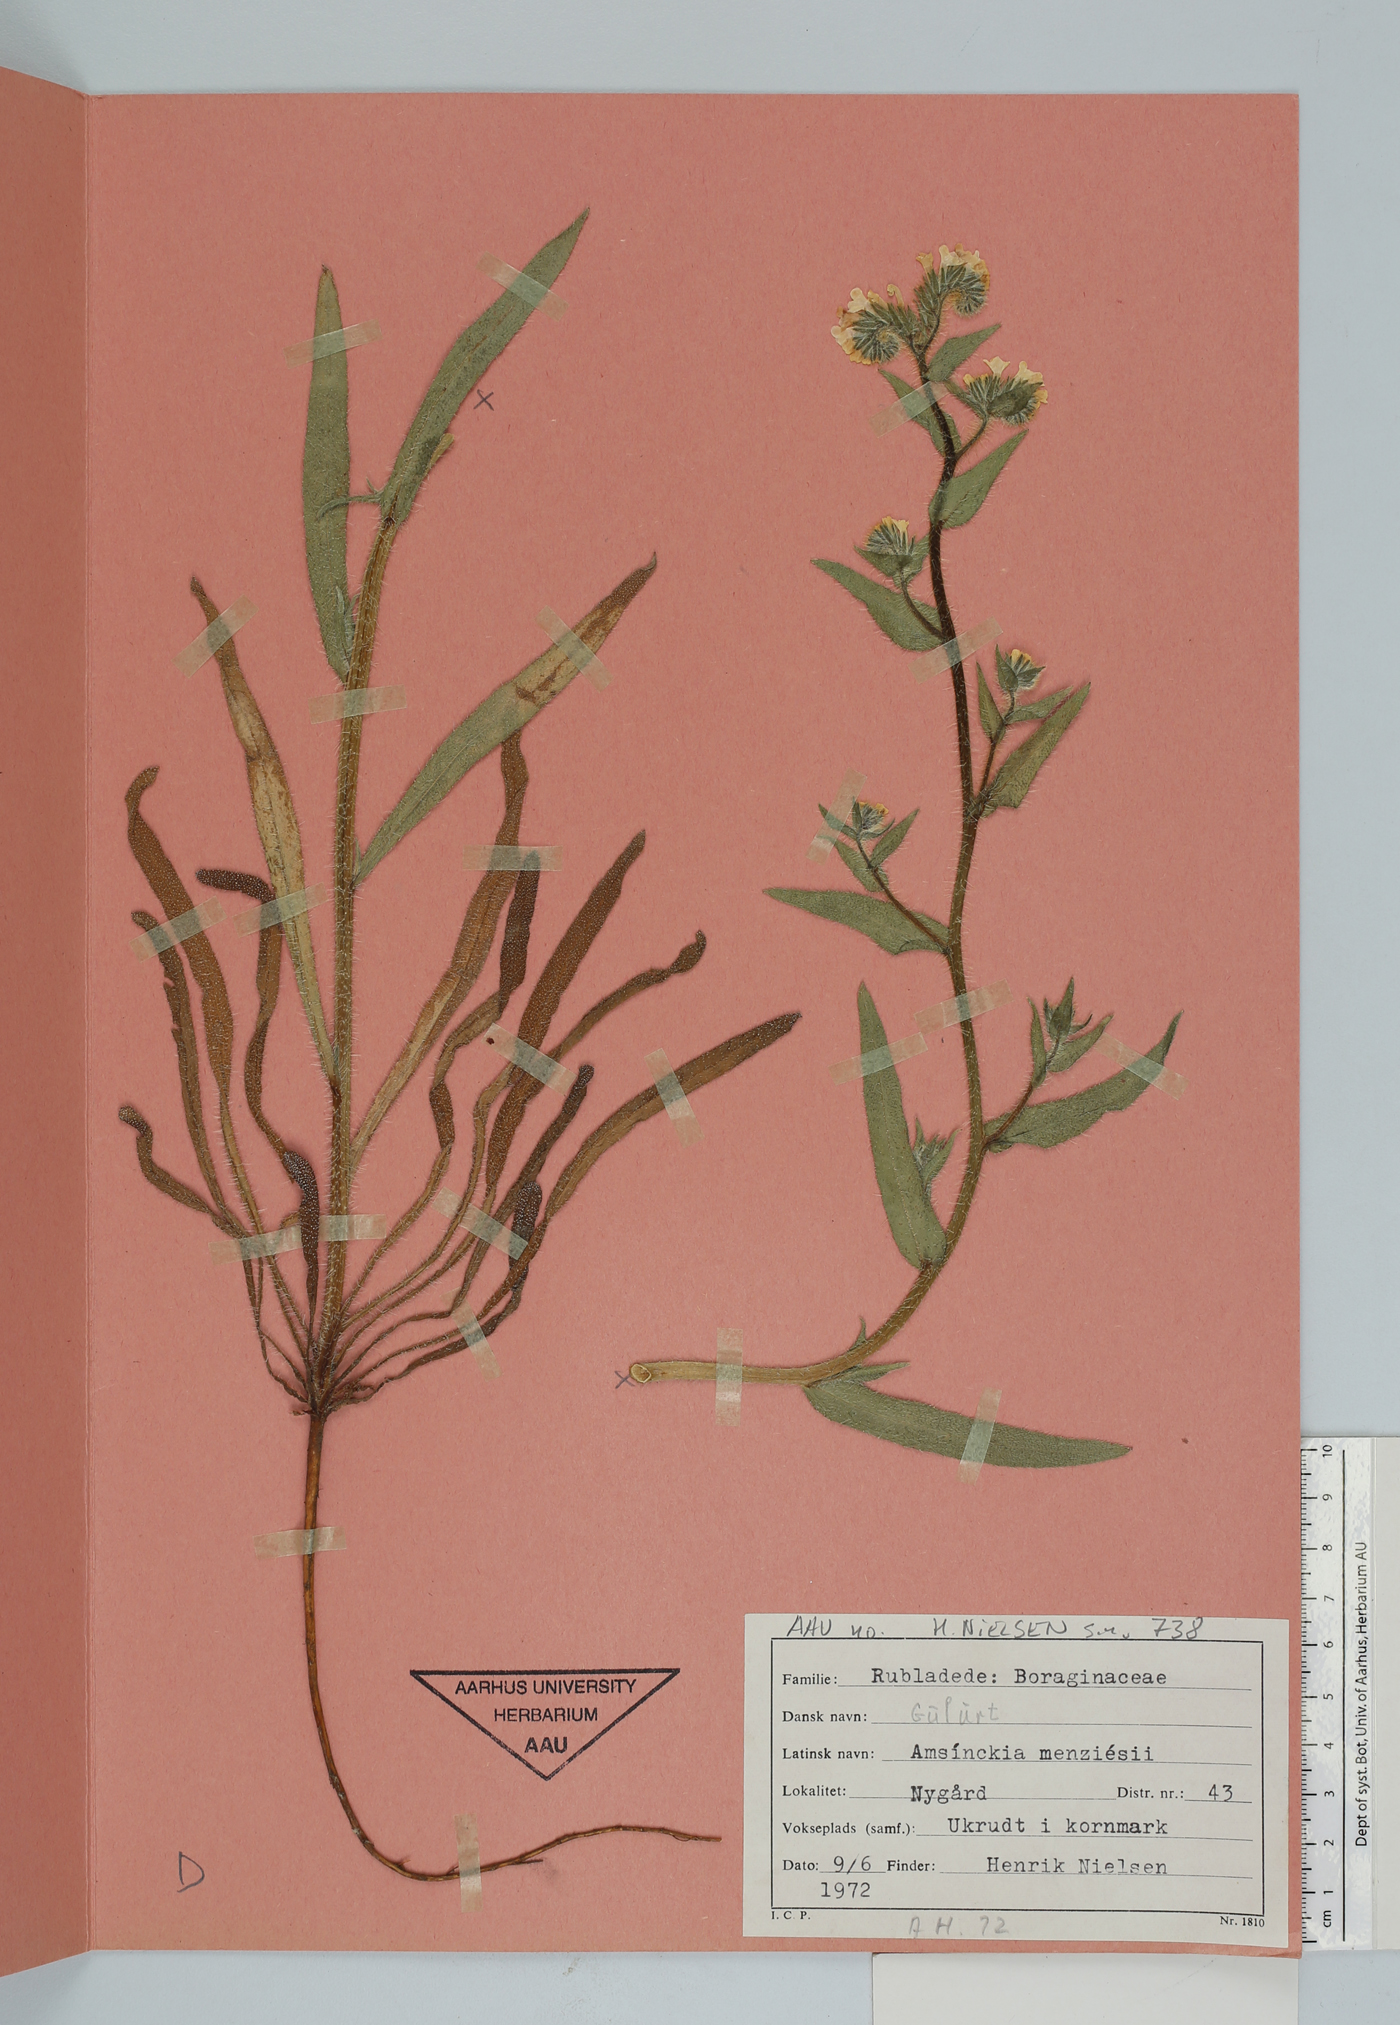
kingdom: Plantae
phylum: Tracheophyta
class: Magnoliopsida
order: Boraginales
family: Boraginaceae
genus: Amsinckia
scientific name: Amsinckia menziesii
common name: Menzies' fiddleneck
